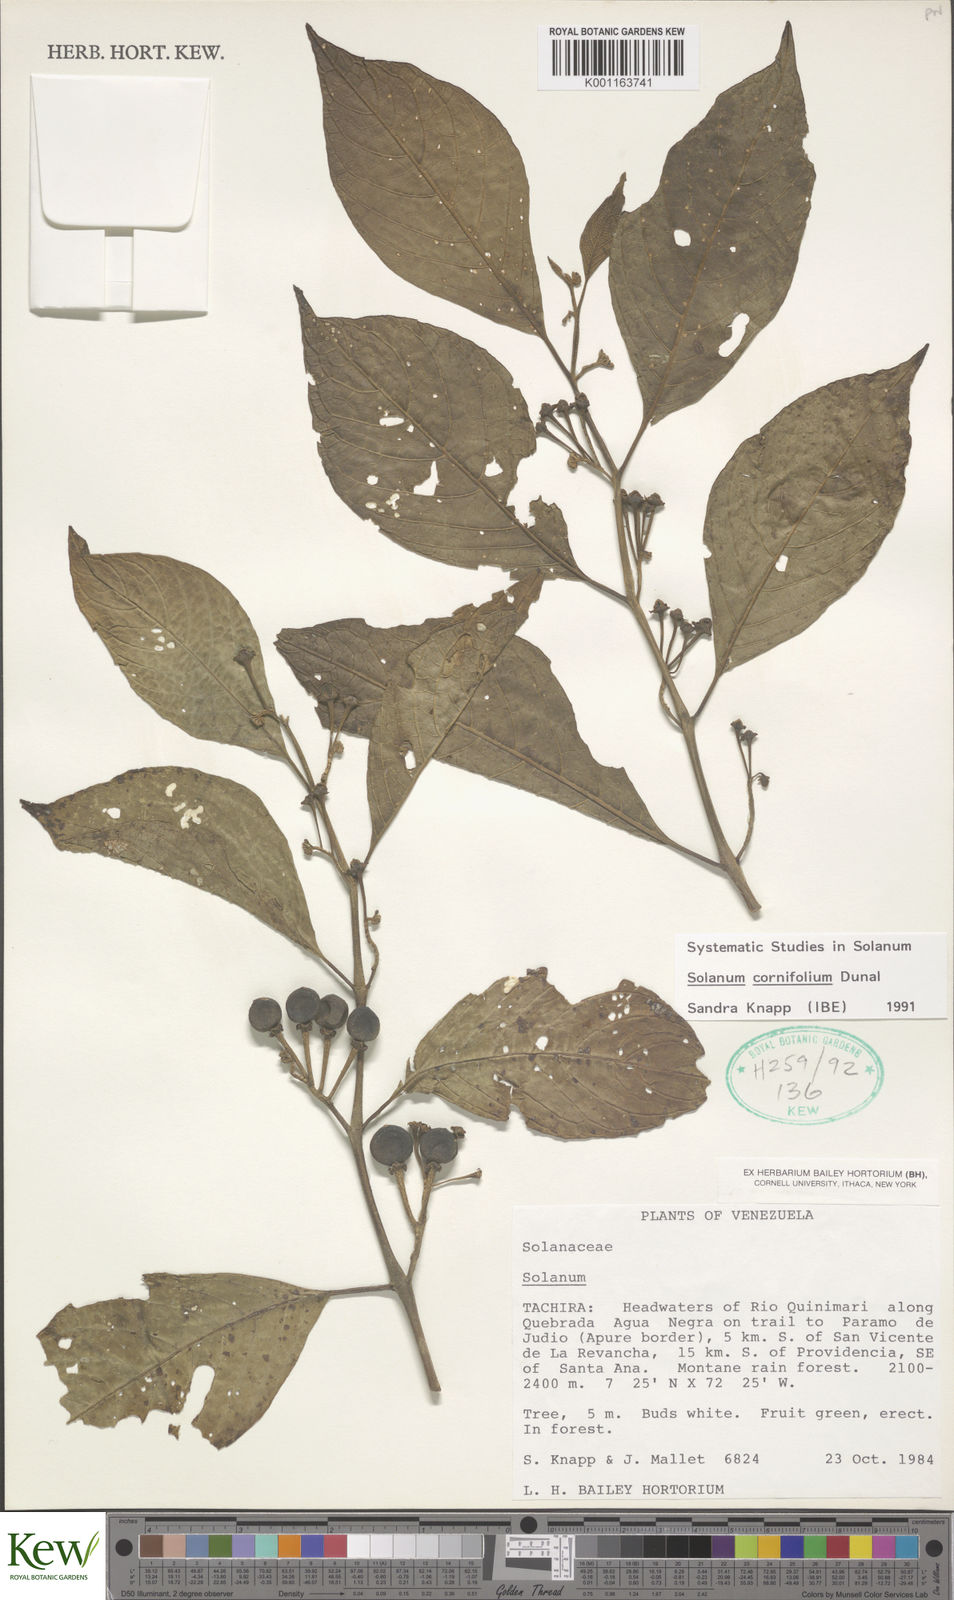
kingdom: Plantae
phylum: Tracheophyta
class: Magnoliopsida
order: Solanales
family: Solanaceae
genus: Solanum
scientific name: Solanum cornifolium
